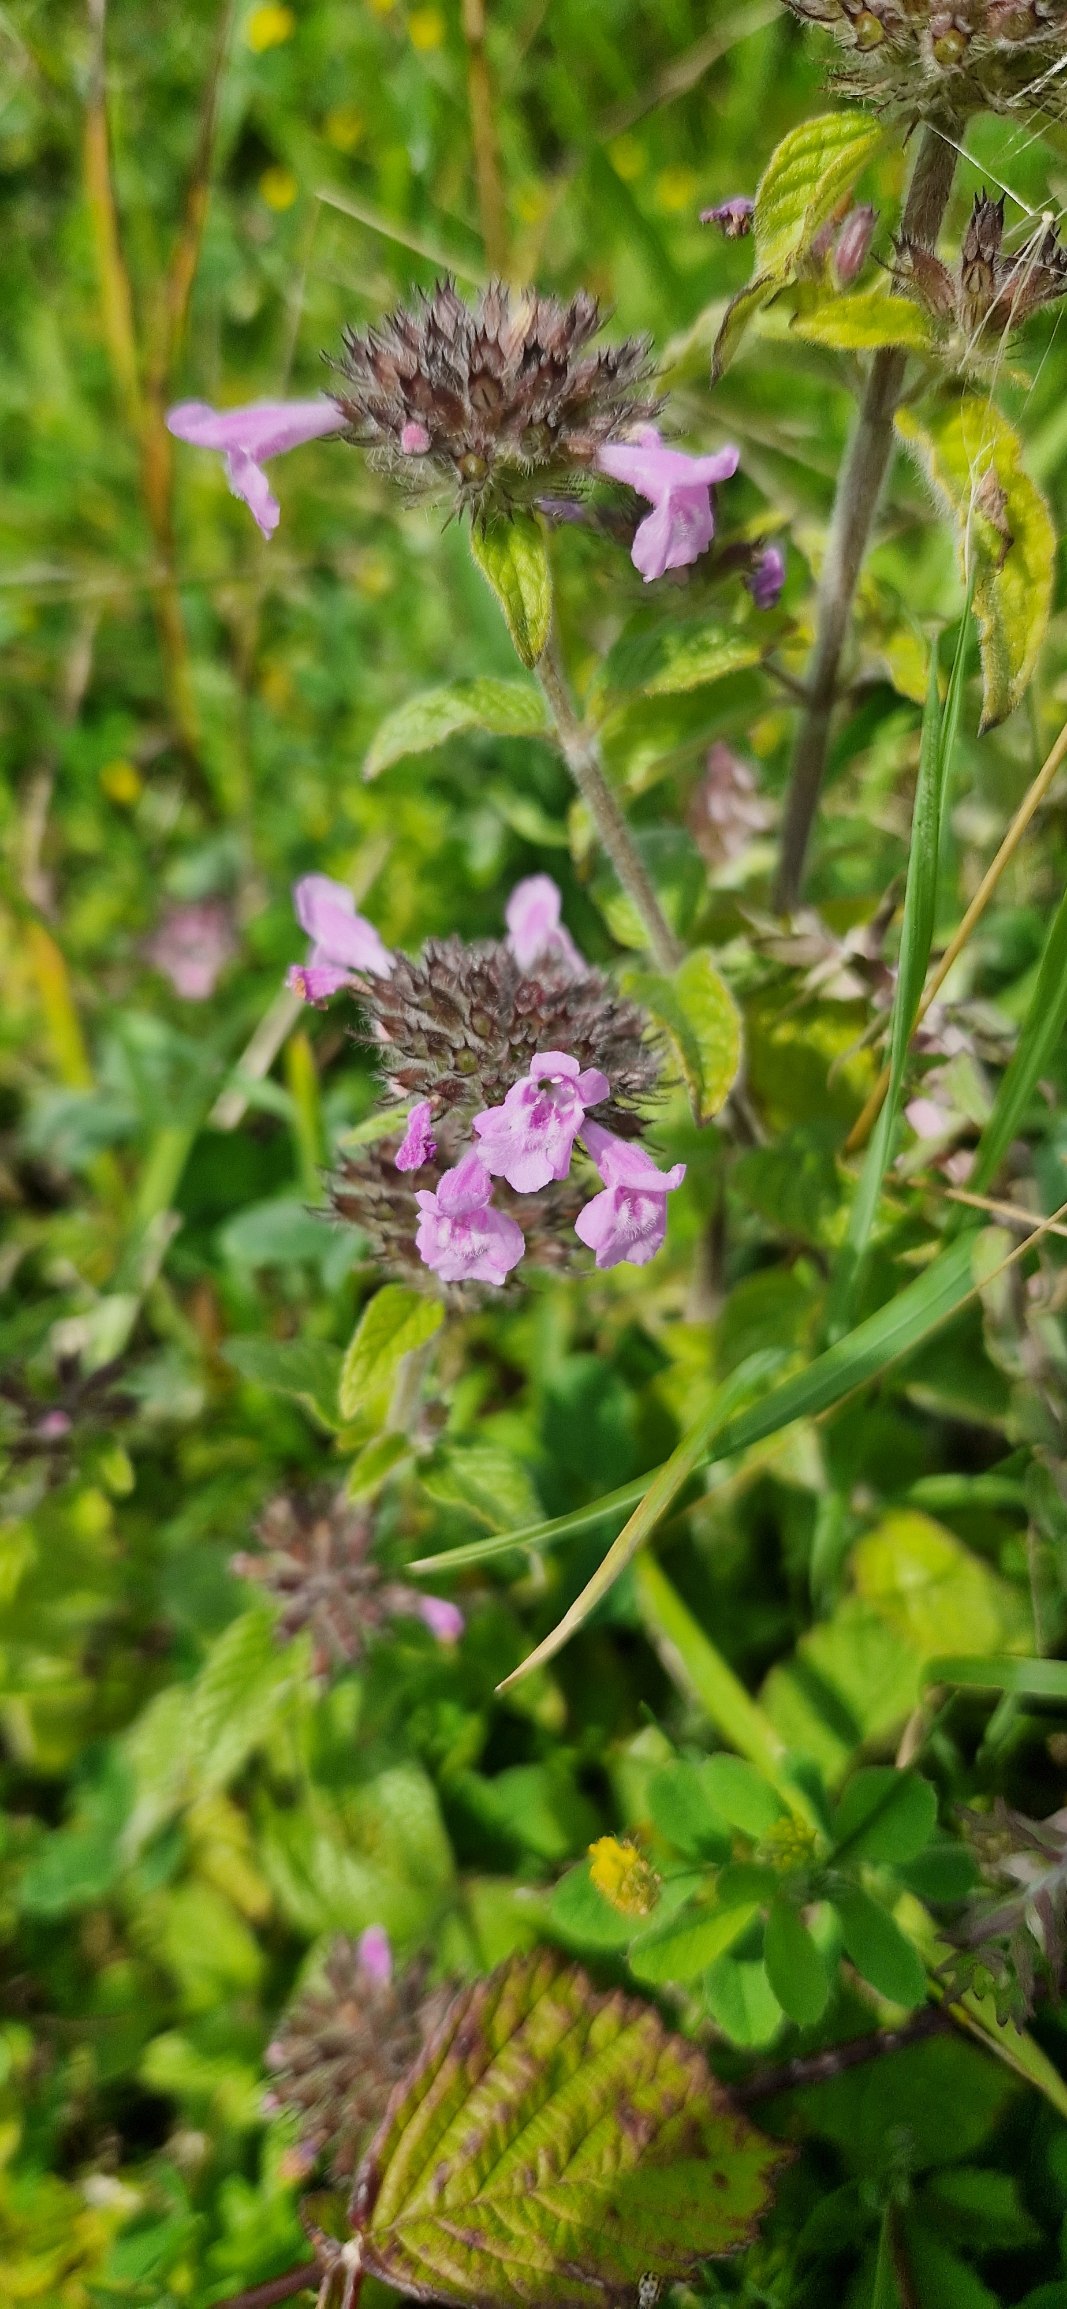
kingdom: Plantae
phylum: Tracheophyta
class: Magnoliopsida
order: Lamiales
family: Lamiaceae
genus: Clinopodium
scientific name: Clinopodium vulgare
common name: Kransbørste
